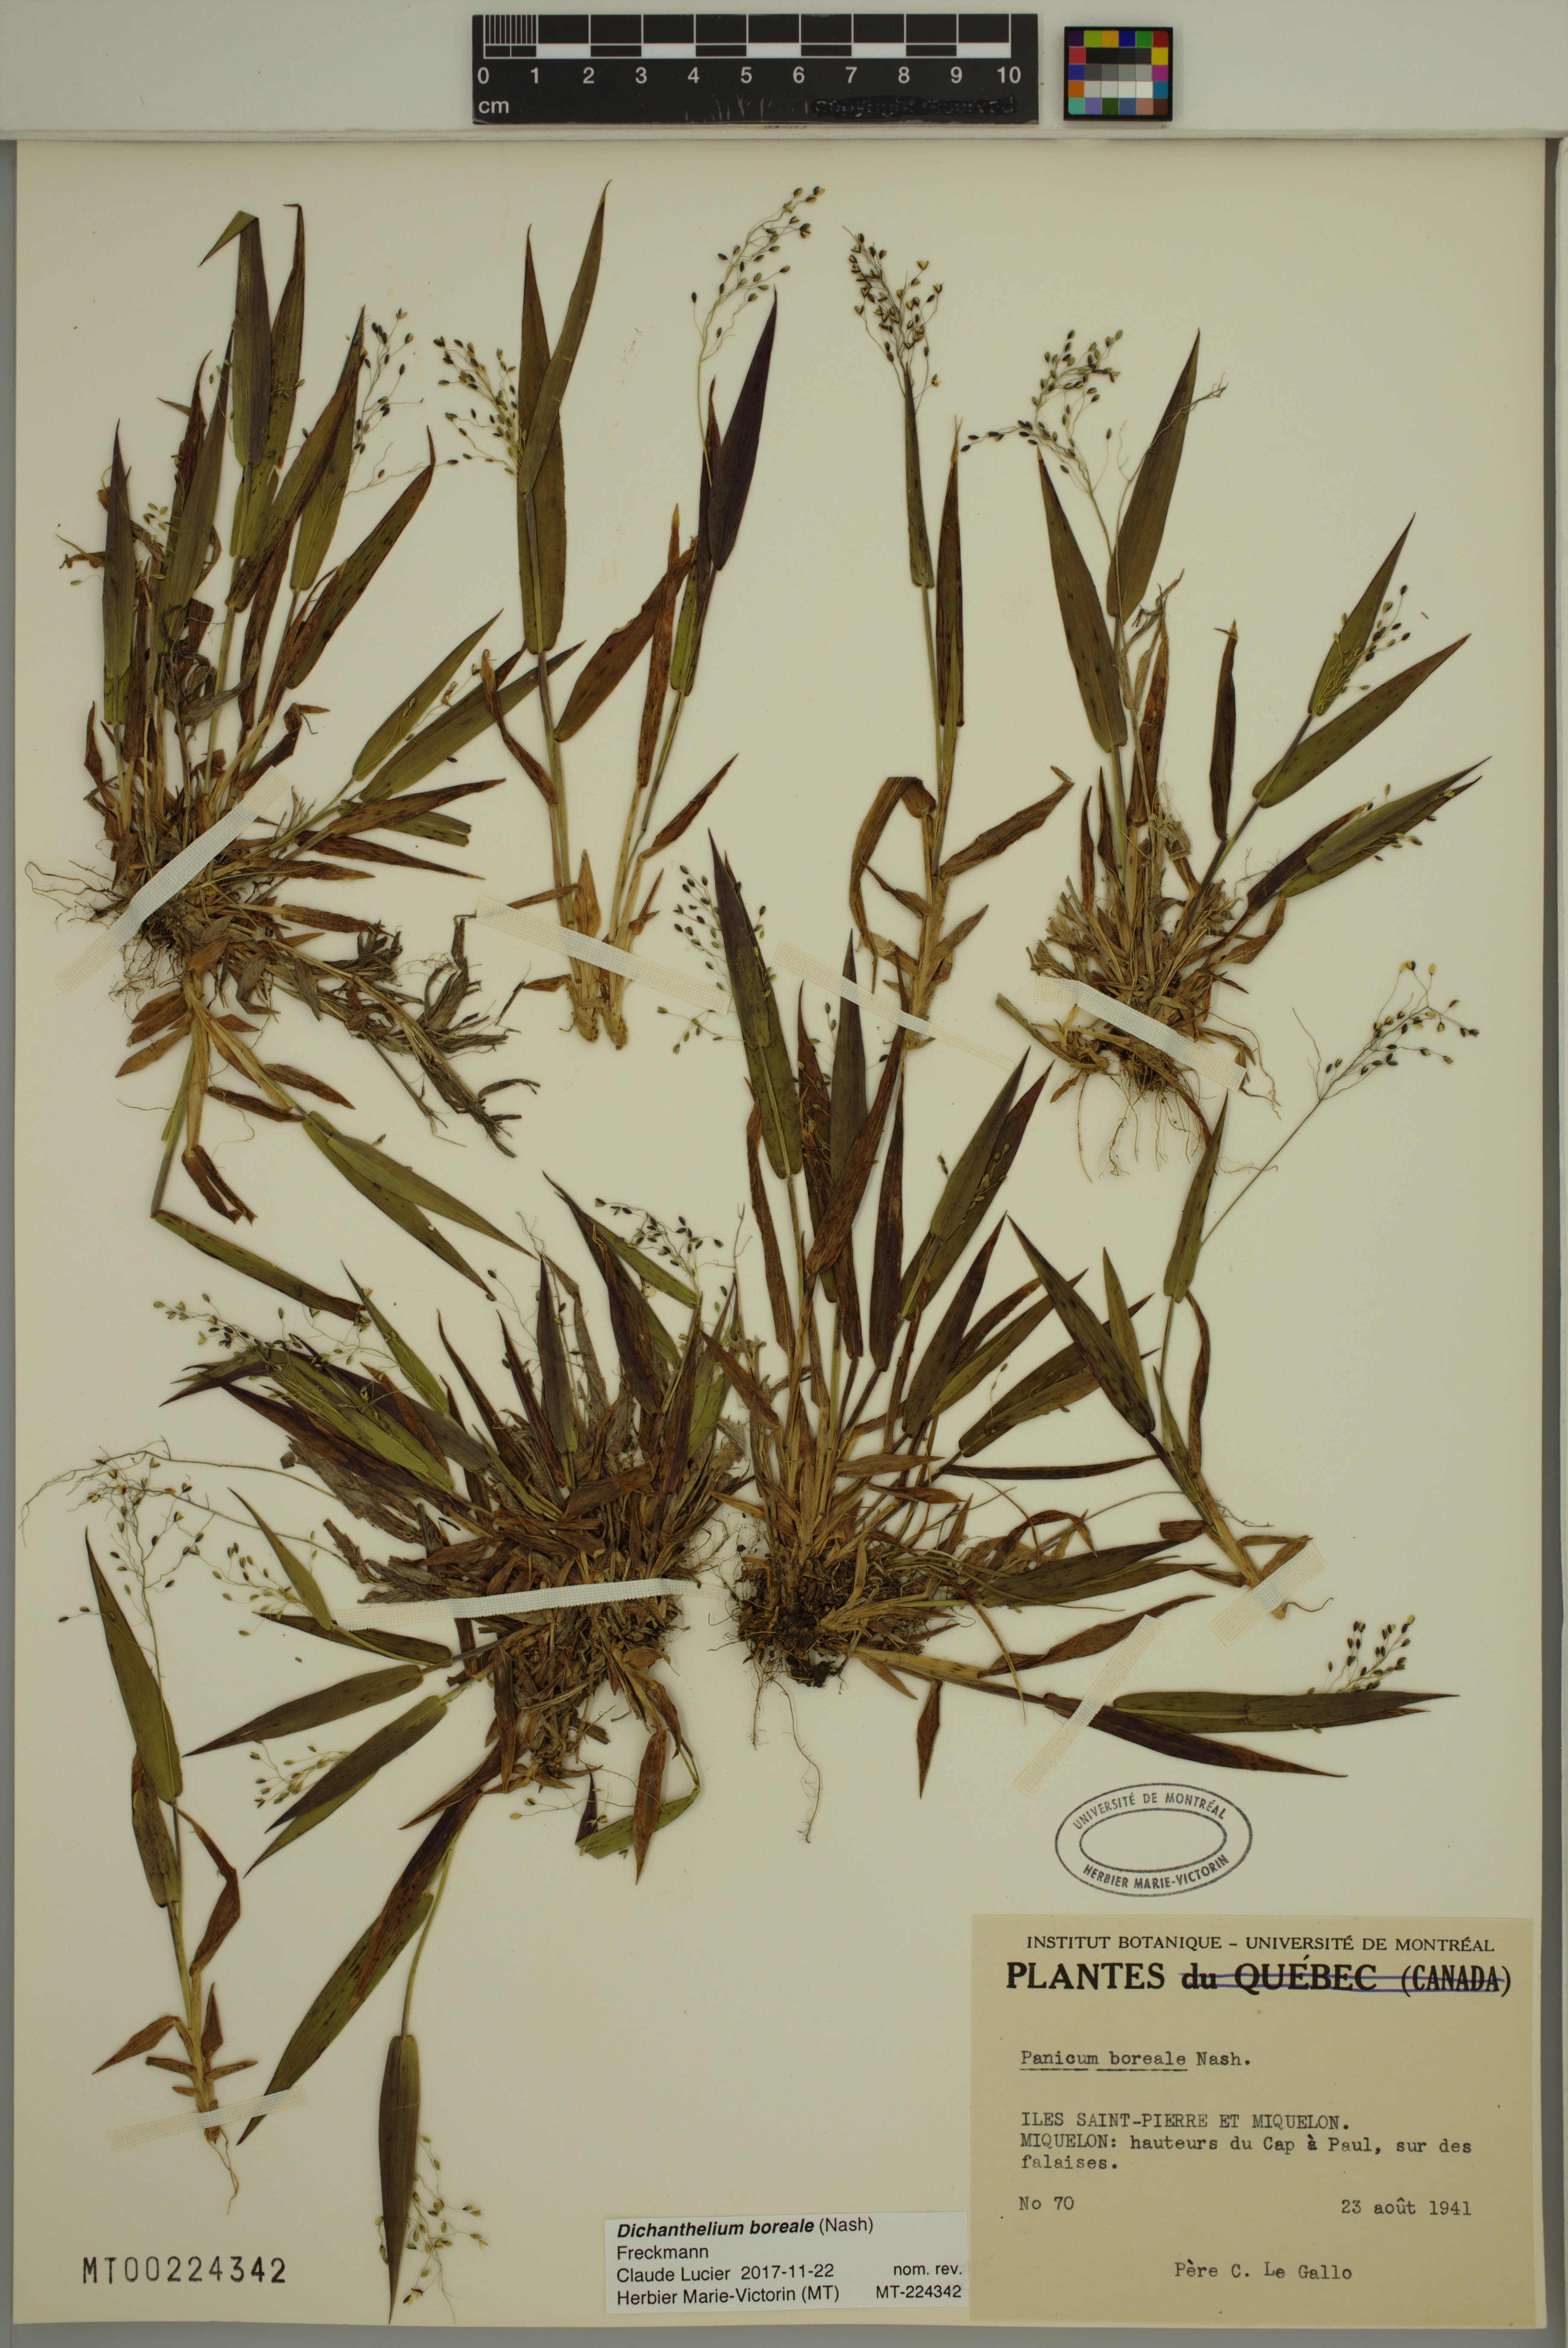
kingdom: Plantae
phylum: Tracheophyta
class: Liliopsida
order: Poales
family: Poaceae
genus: Dichanthelium
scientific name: Dichanthelium boreale
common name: Northern panicgrass
